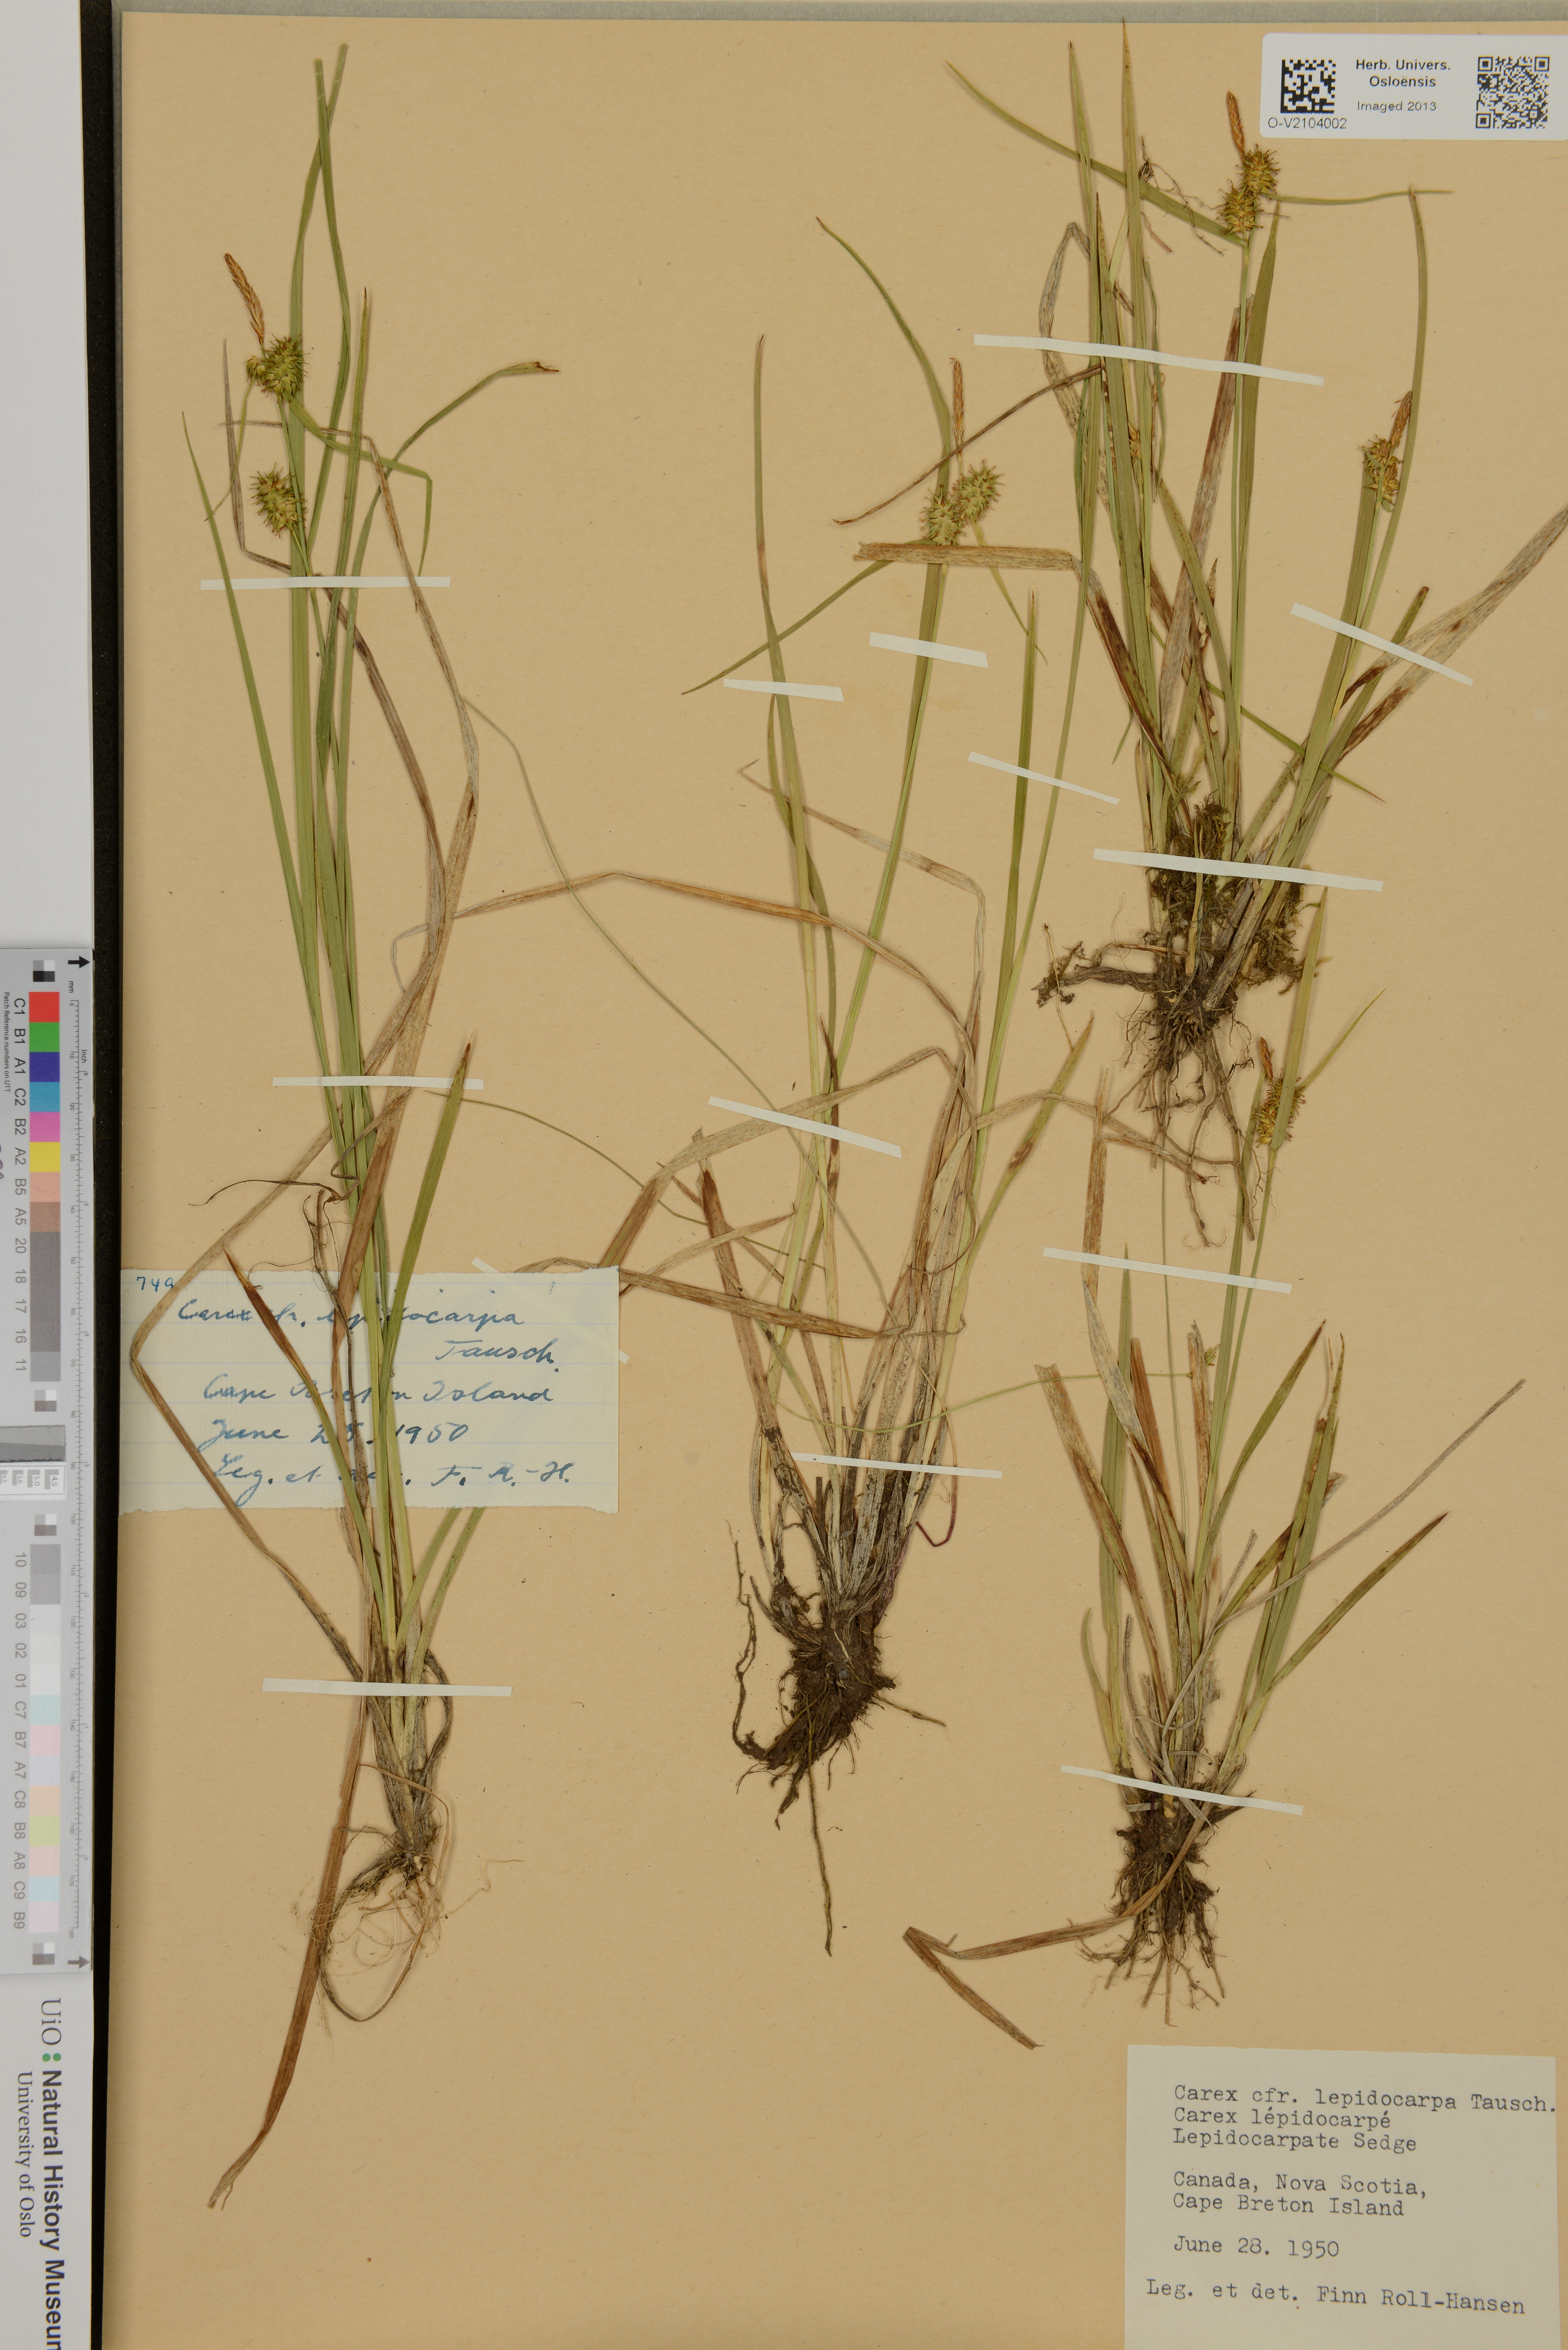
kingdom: Plantae
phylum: Tracheophyta
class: Liliopsida
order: Poales
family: Cyperaceae
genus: Carex
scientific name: Carex lepidocarpa
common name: Long-stalked yellow-sedge
